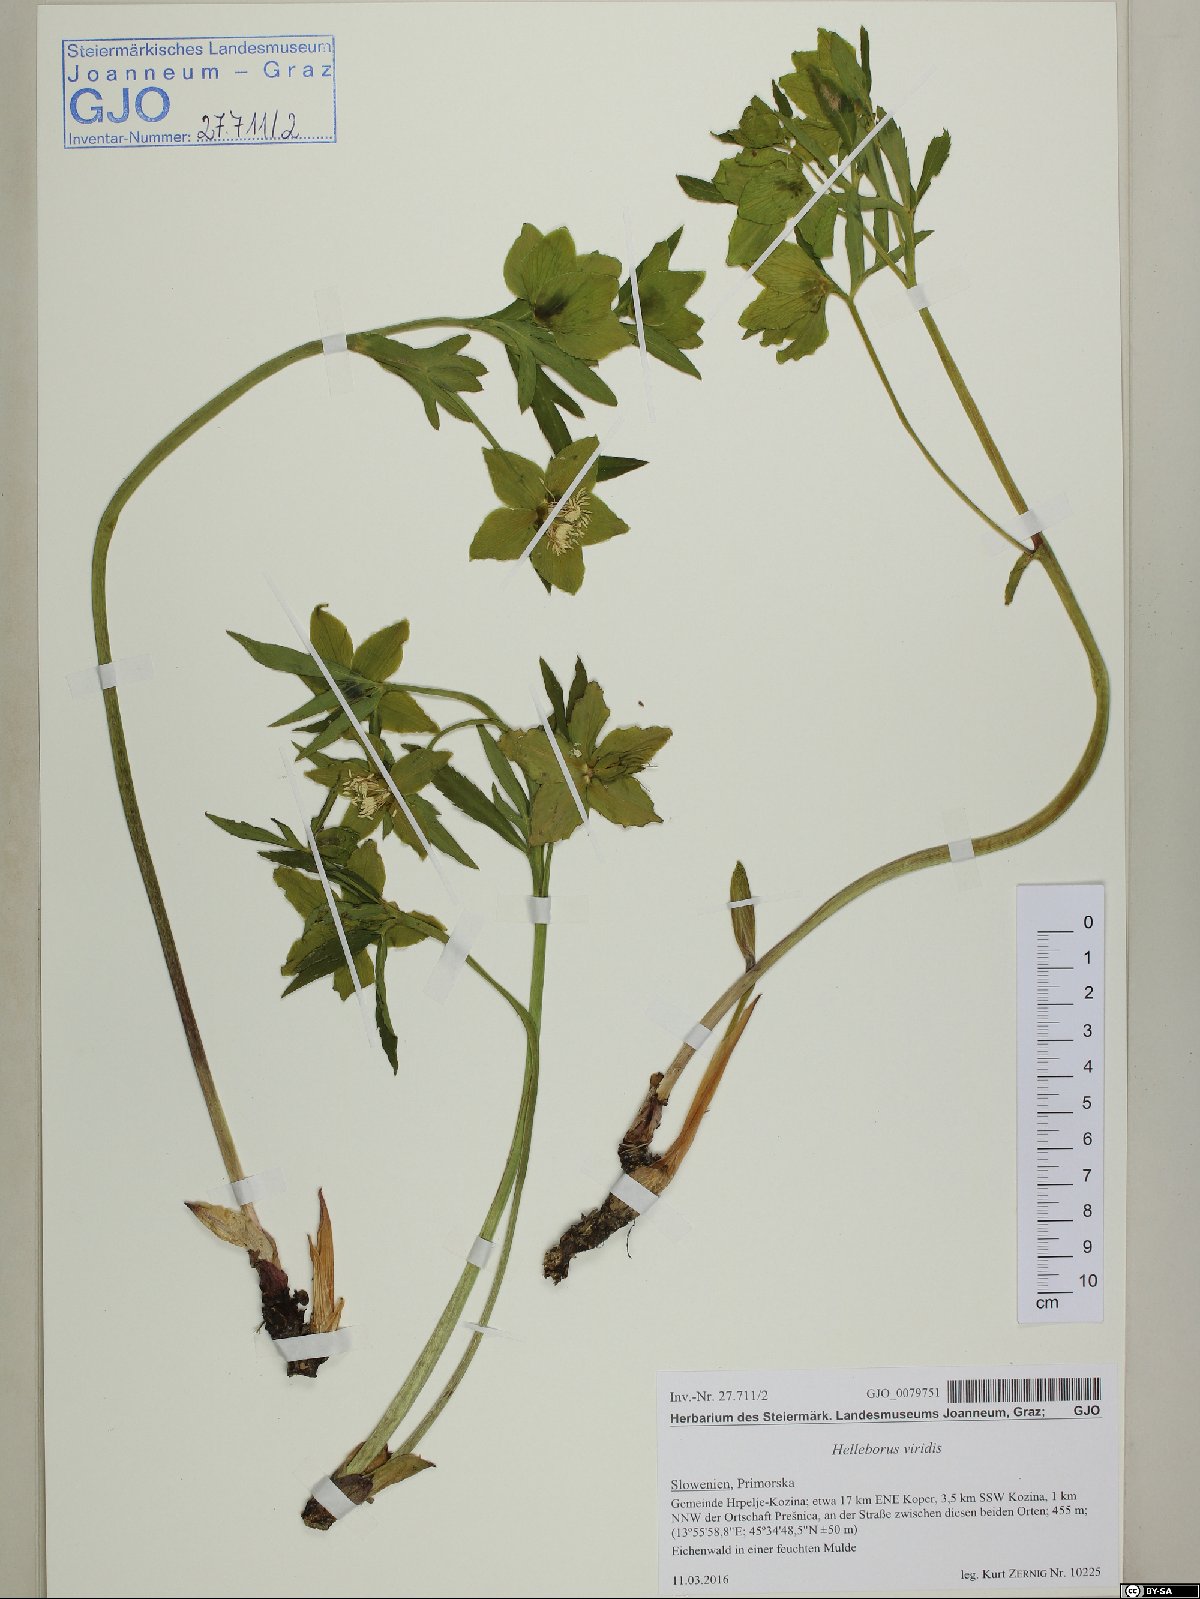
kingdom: Plantae
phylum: Tracheophyta
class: Magnoliopsida
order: Ranunculales
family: Ranunculaceae
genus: Helleborus
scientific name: Helleborus viridis
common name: Green hellebore
